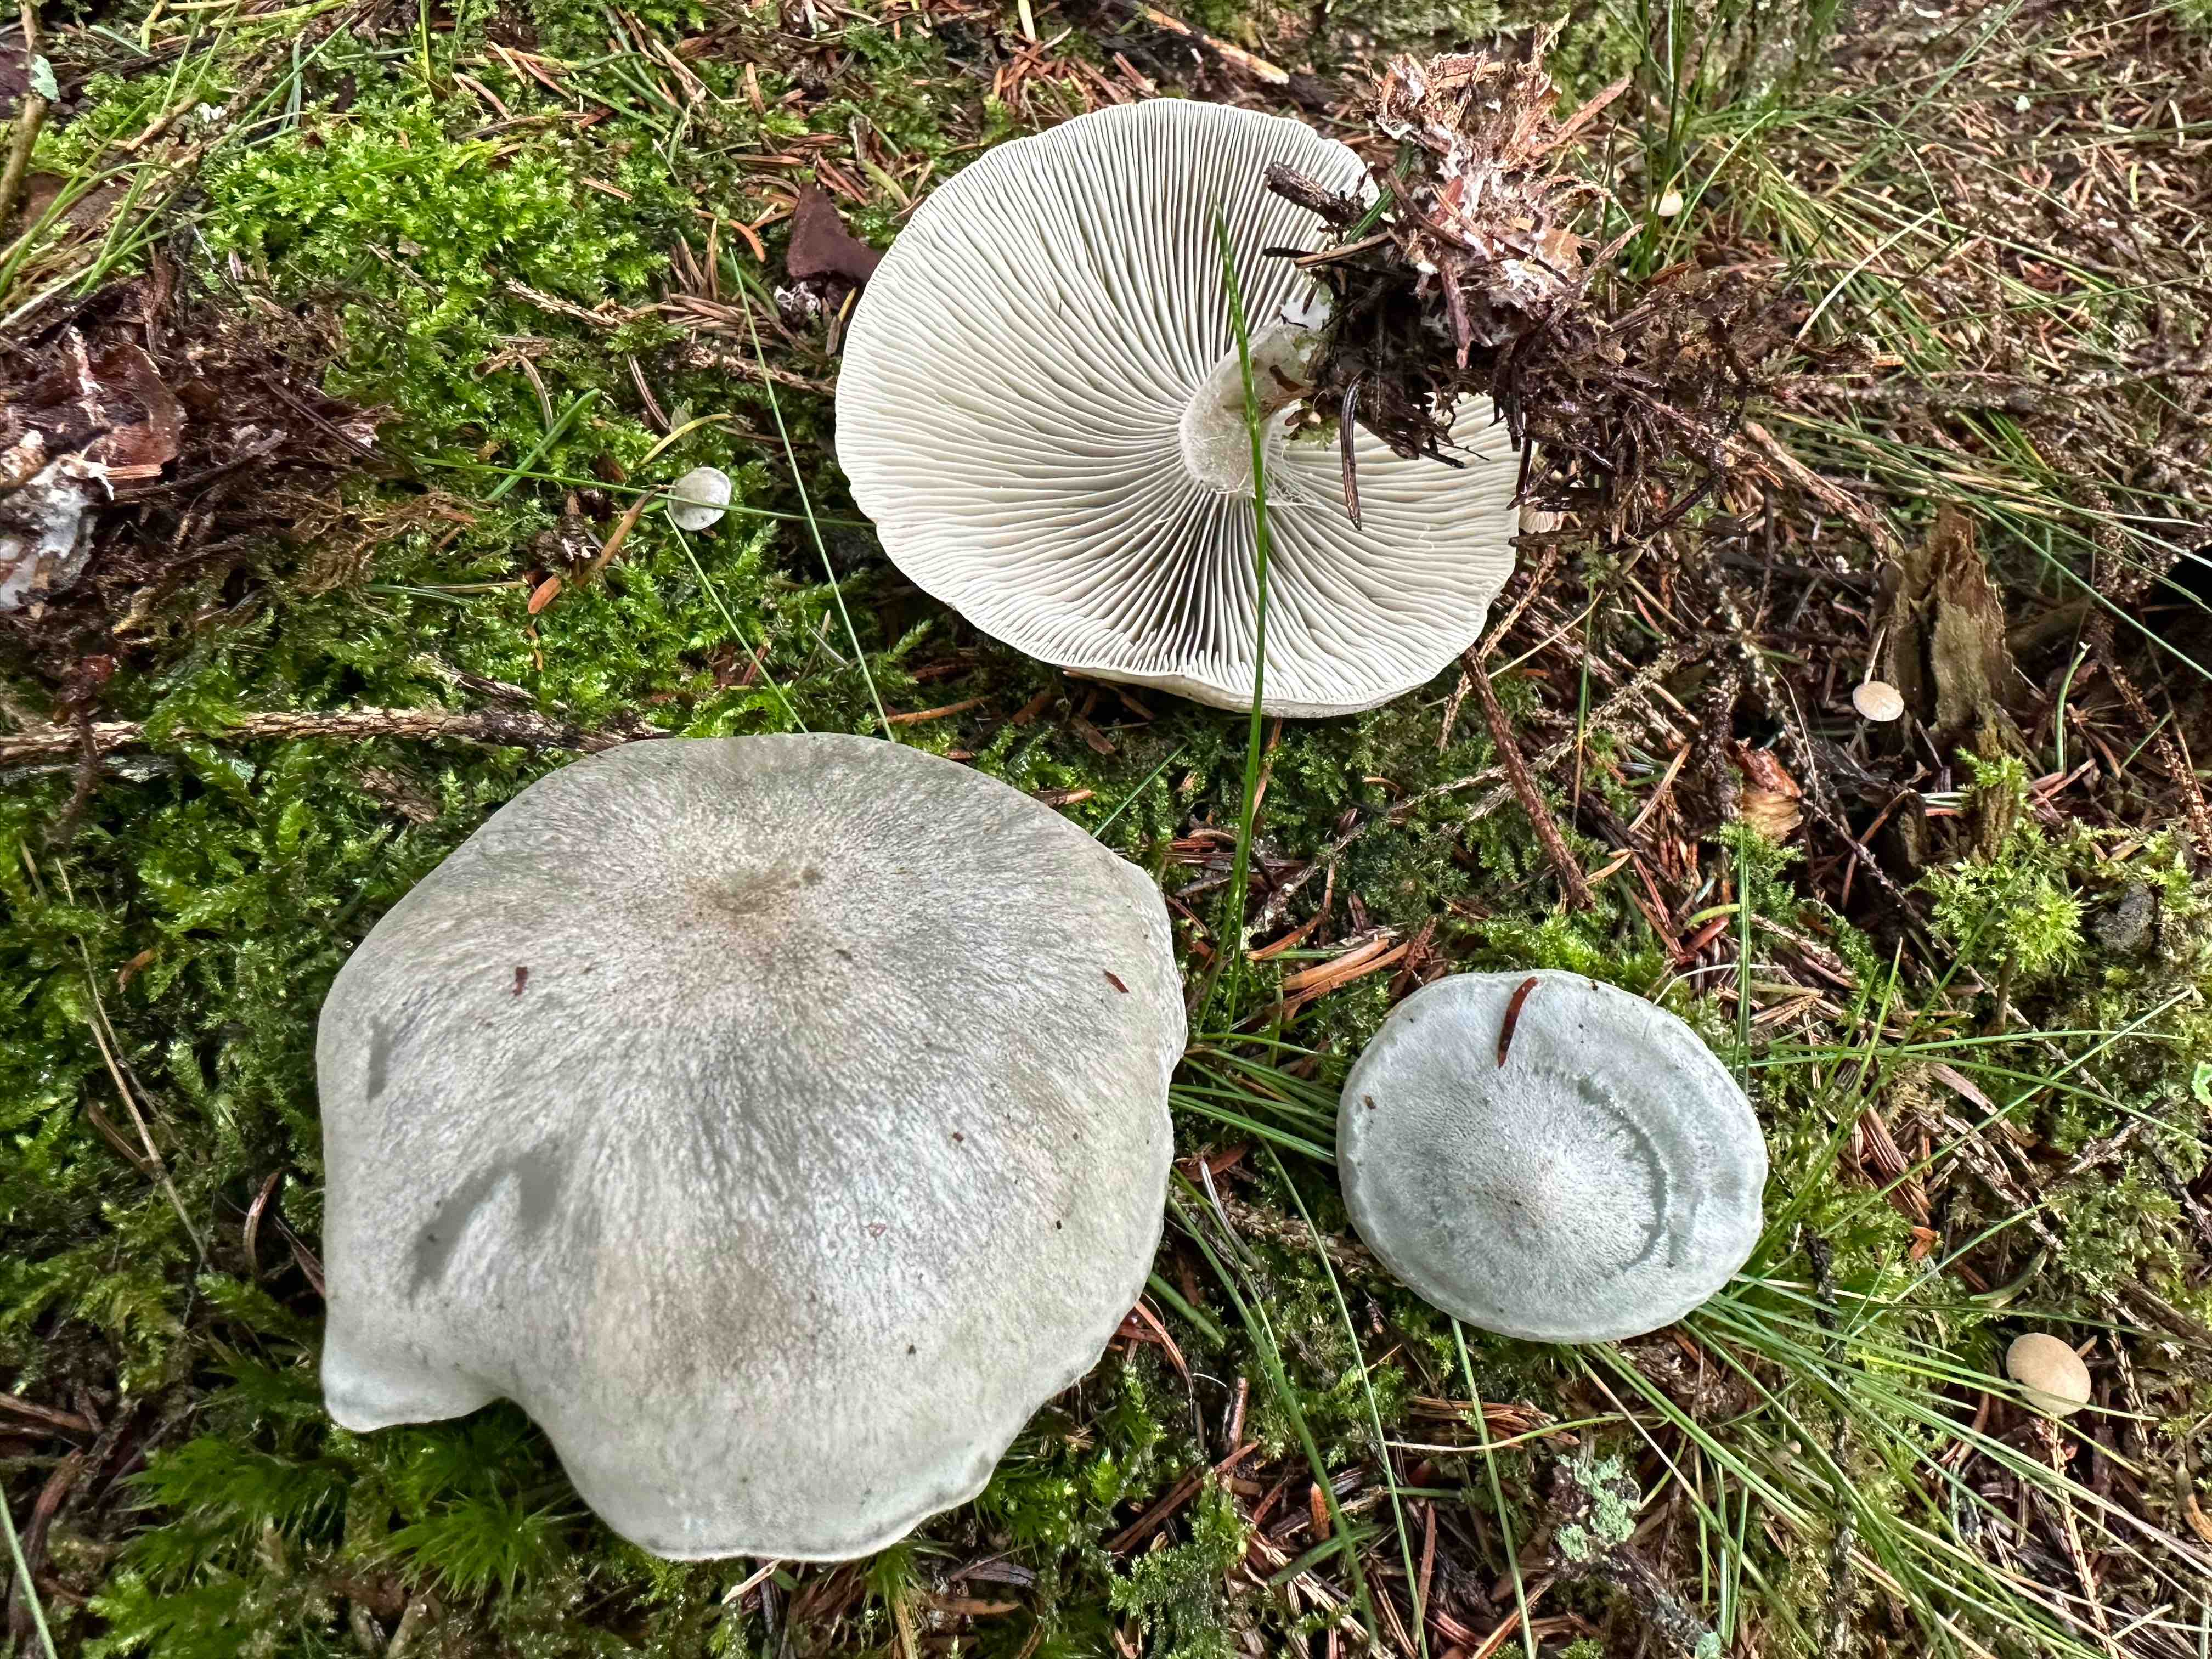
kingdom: Fungi
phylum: Basidiomycota
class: Agaricomycetes
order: Agaricales
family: Tricholomataceae
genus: Clitocybe
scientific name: Clitocybe odora
